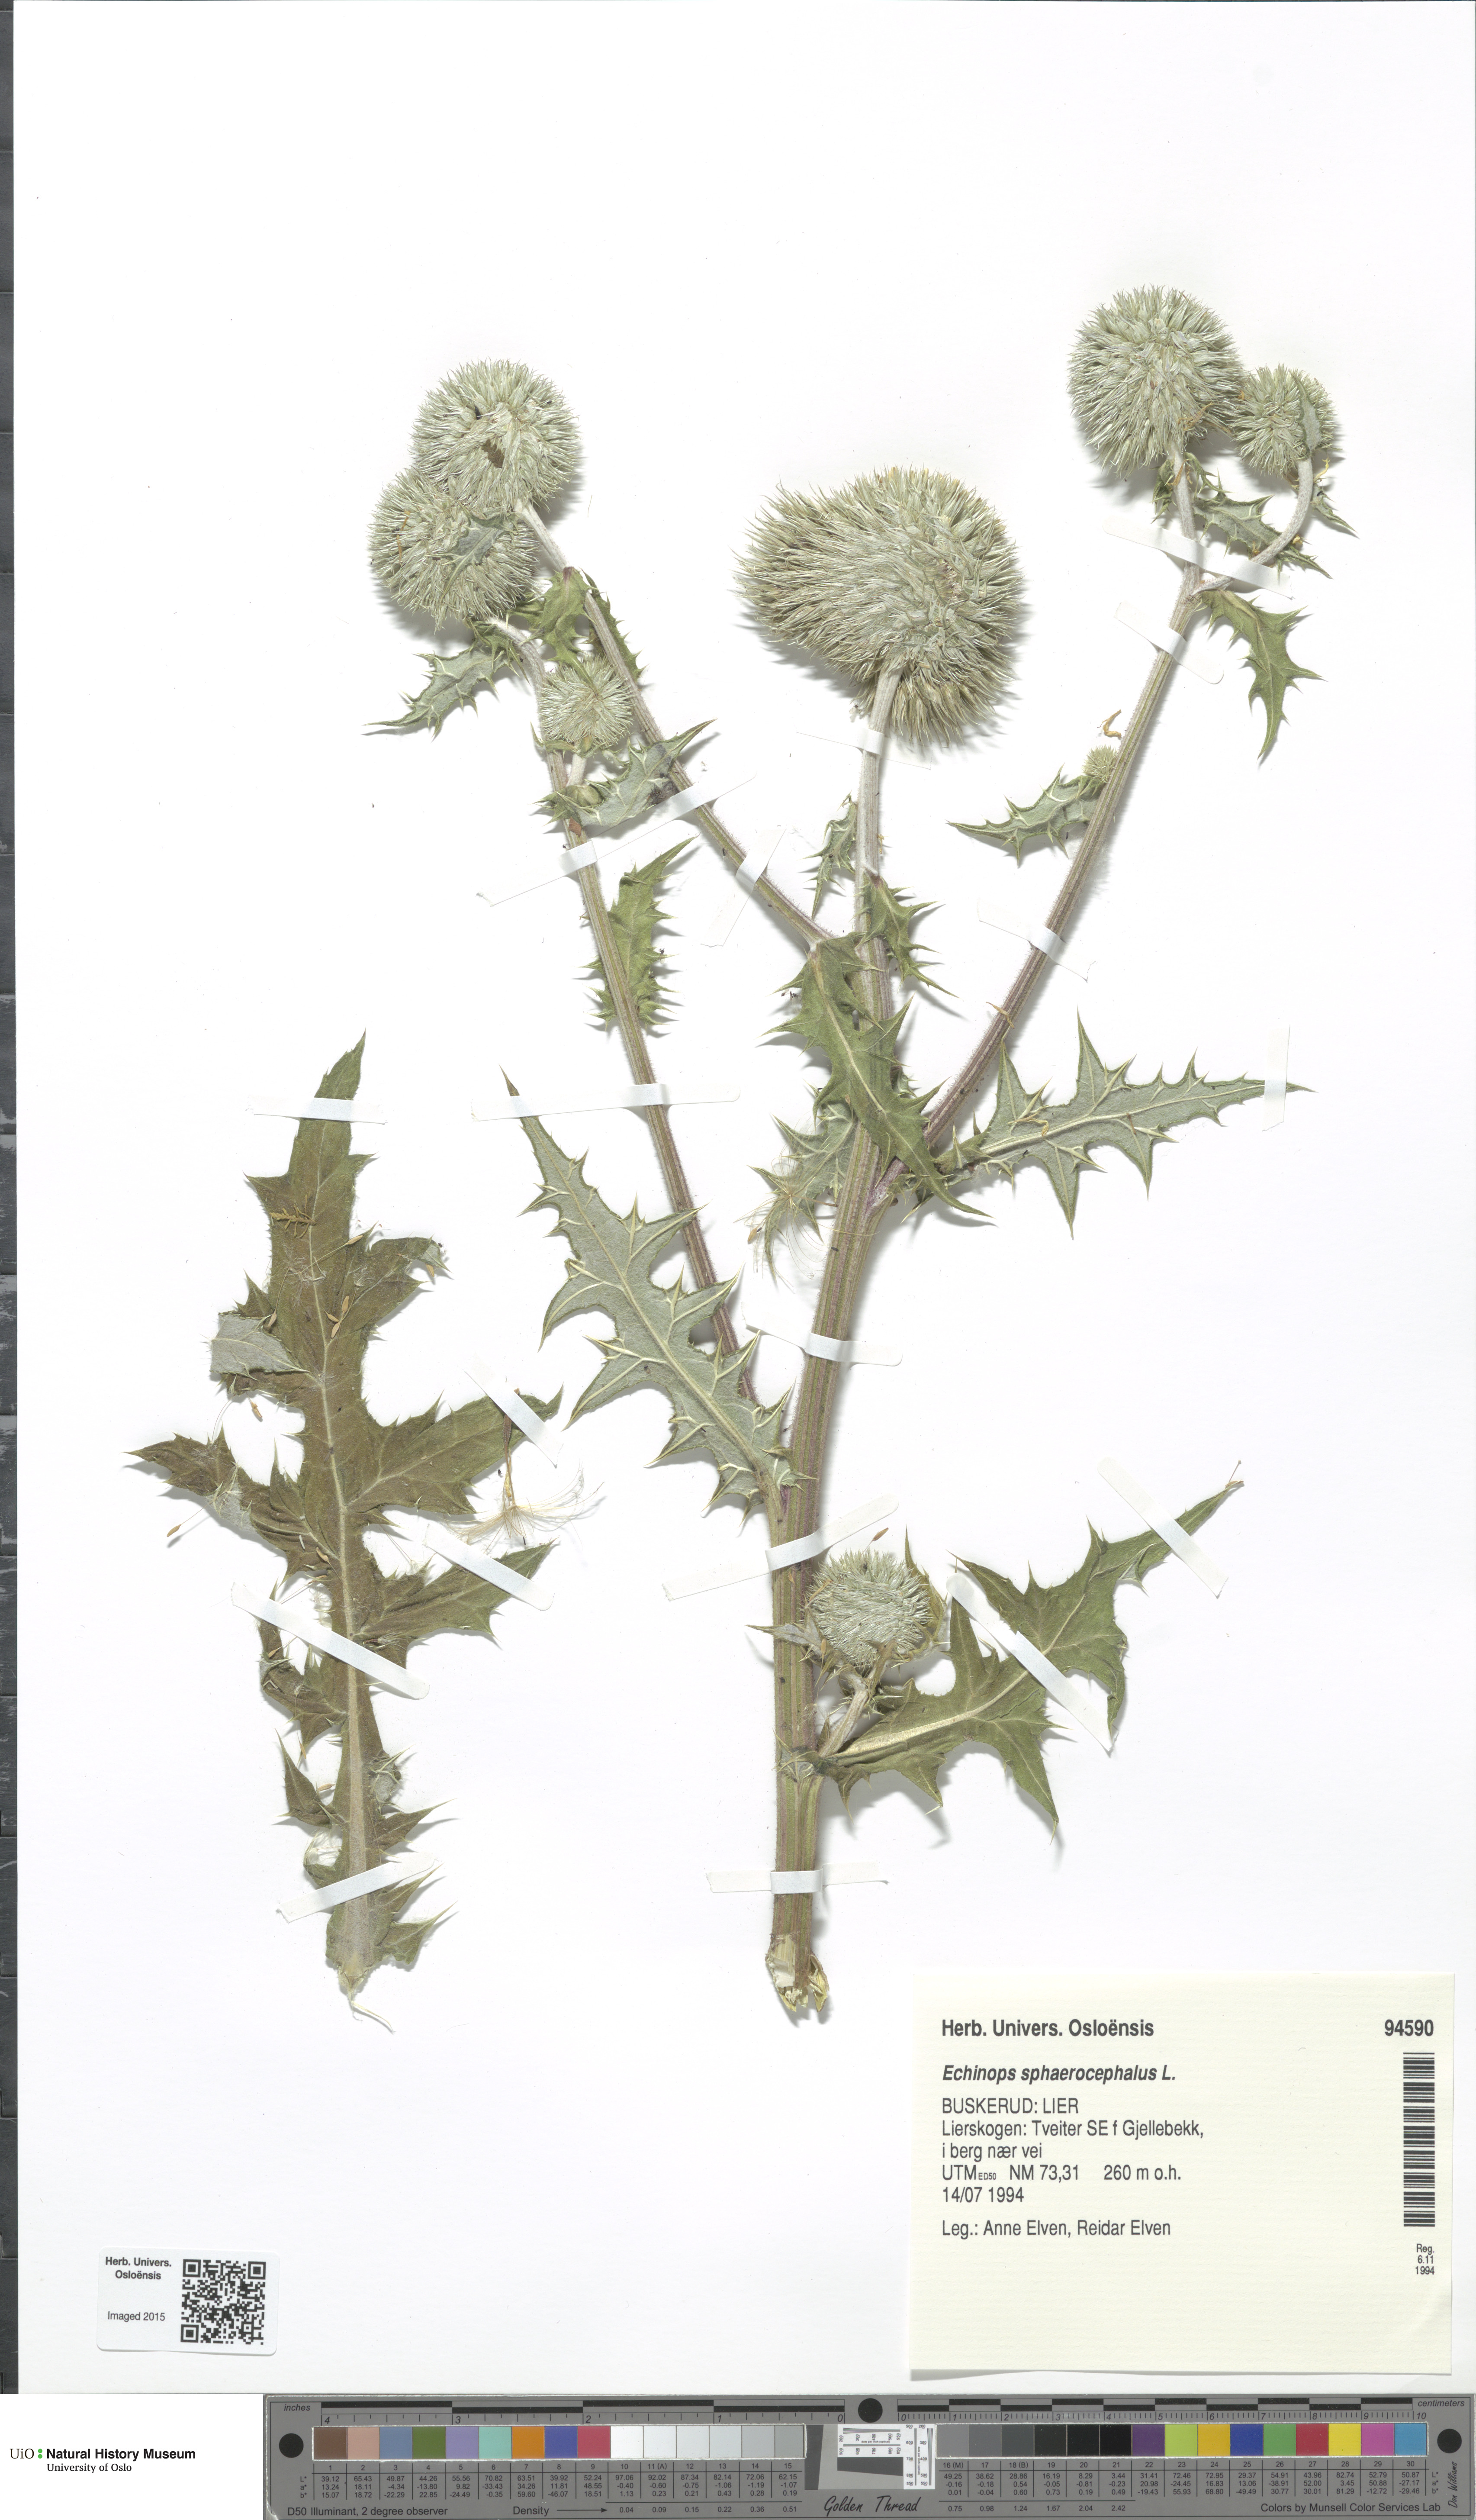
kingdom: Plantae
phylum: Tracheophyta
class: Magnoliopsida
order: Asterales
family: Asteraceae
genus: Echinops
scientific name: Echinops sphaerocephalus
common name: Glandular globe-thistle
